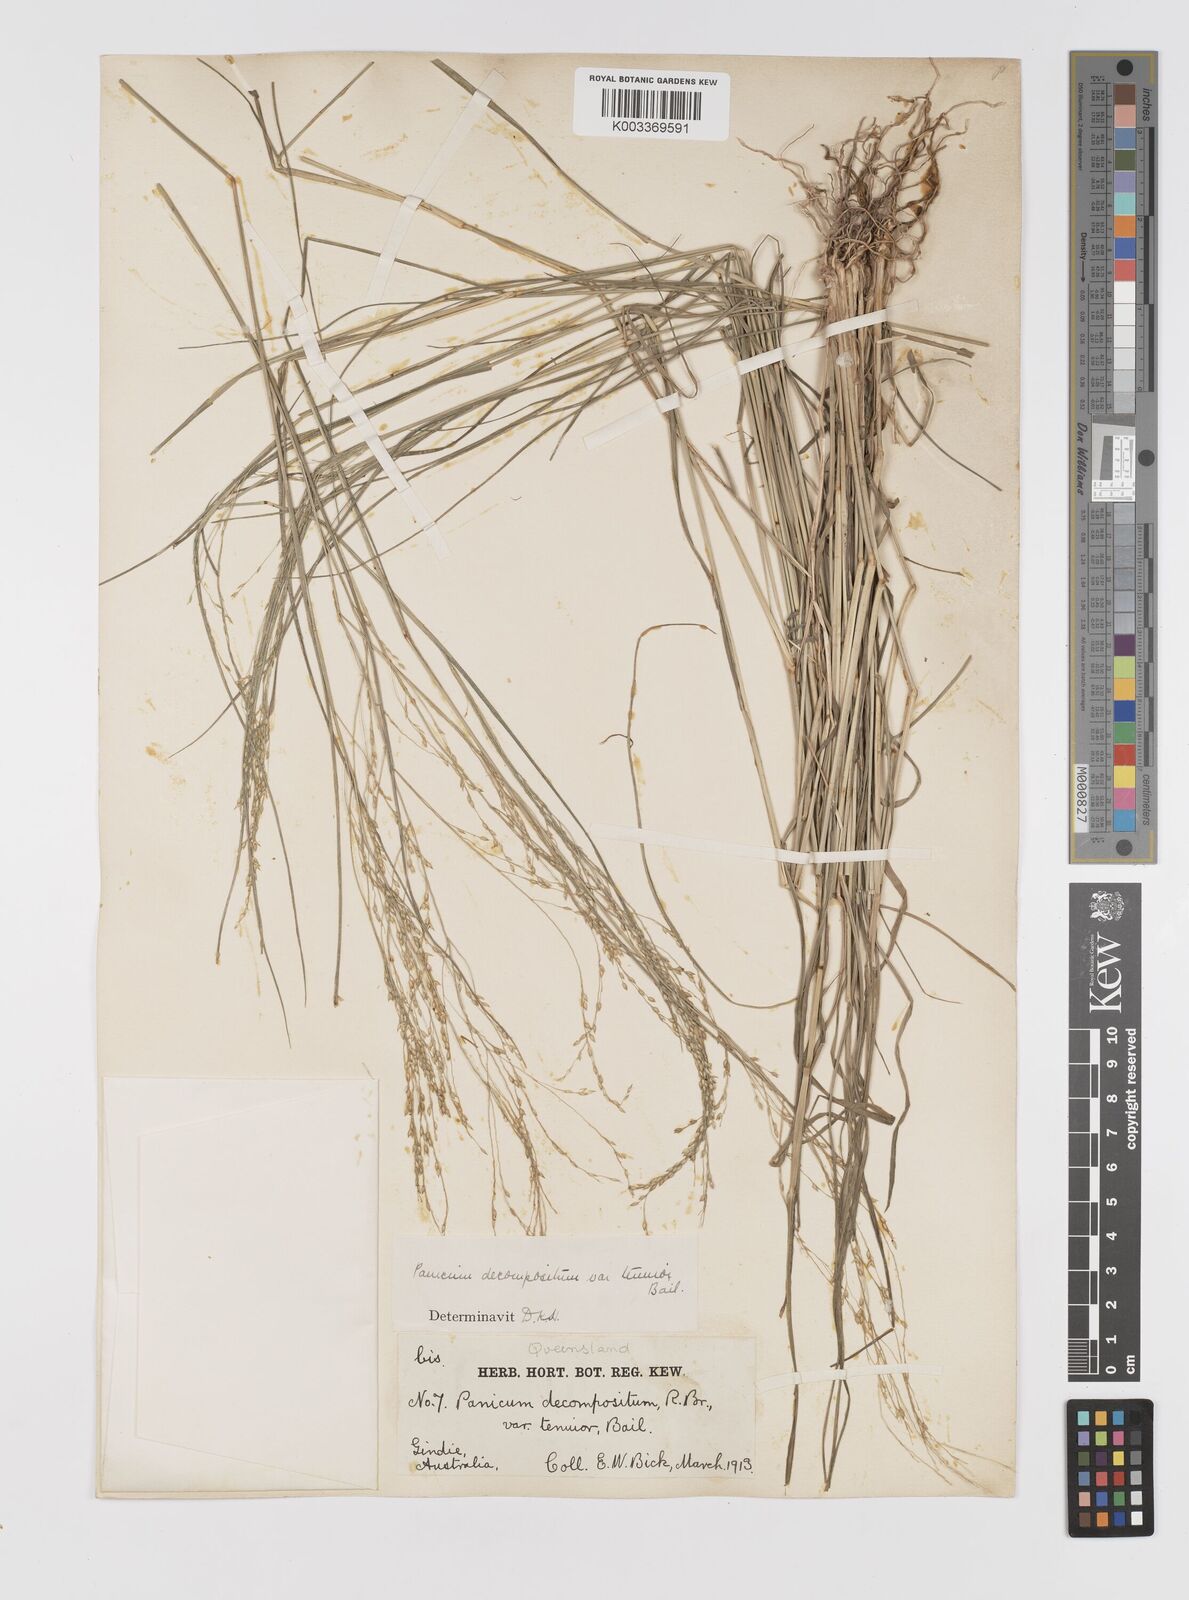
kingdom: Plantae
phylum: Tracheophyta
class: Liliopsida
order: Poales
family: Poaceae
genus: Panicum
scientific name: Panicum decompositum
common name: Australian millet
